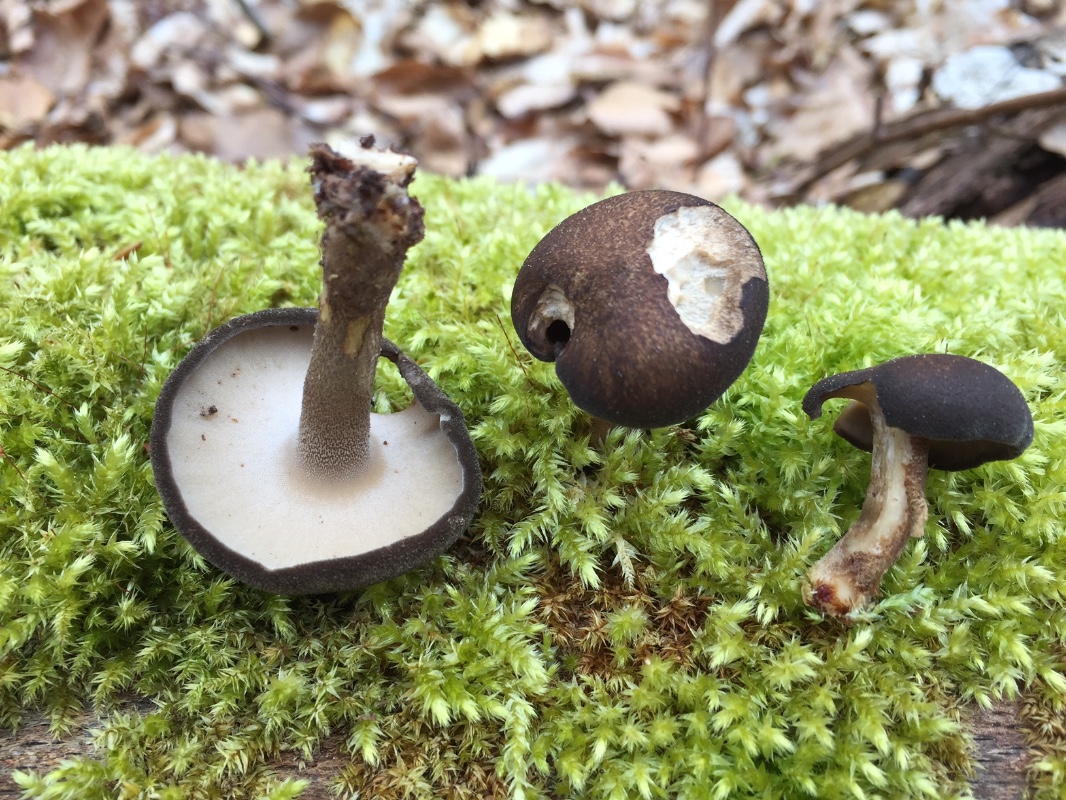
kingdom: Fungi
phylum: Basidiomycota
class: Agaricomycetes
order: Polyporales
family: Polyporaceae
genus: Lentinus
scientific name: Lentinus substrictus
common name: forårs-stilkporesvamp
